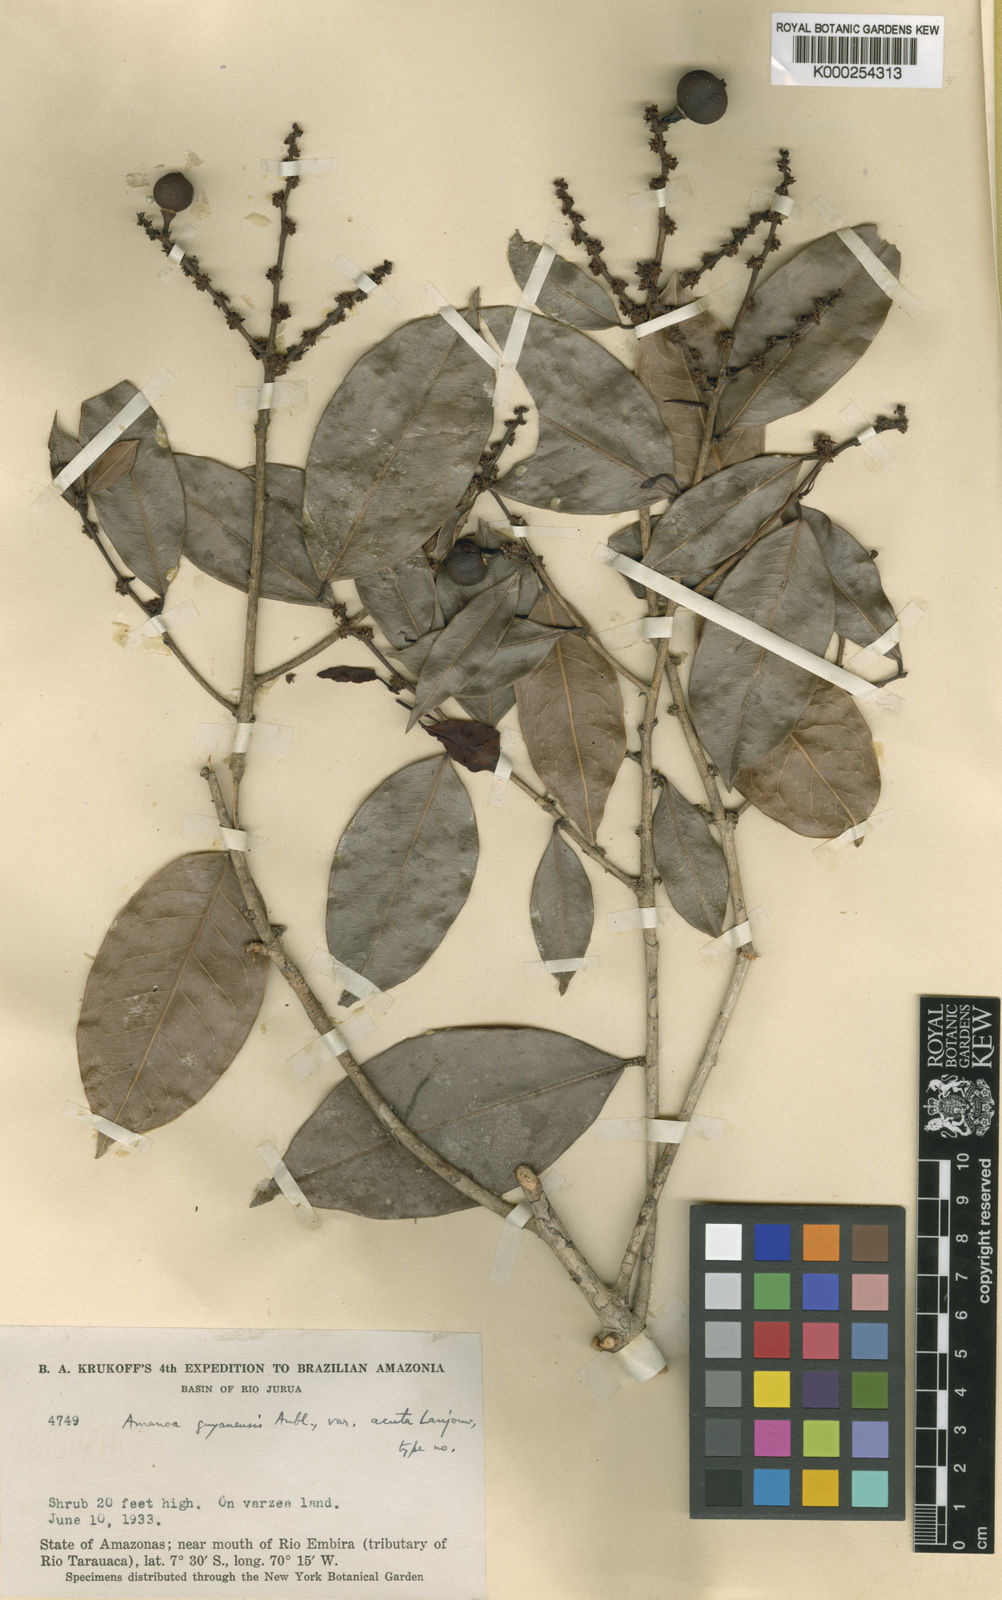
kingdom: Plantae
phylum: Tracheophyta
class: Magnoliopsida
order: Malpighiales
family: Phyllanthaceae
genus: Amanoa
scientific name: Amanoa guianensis
